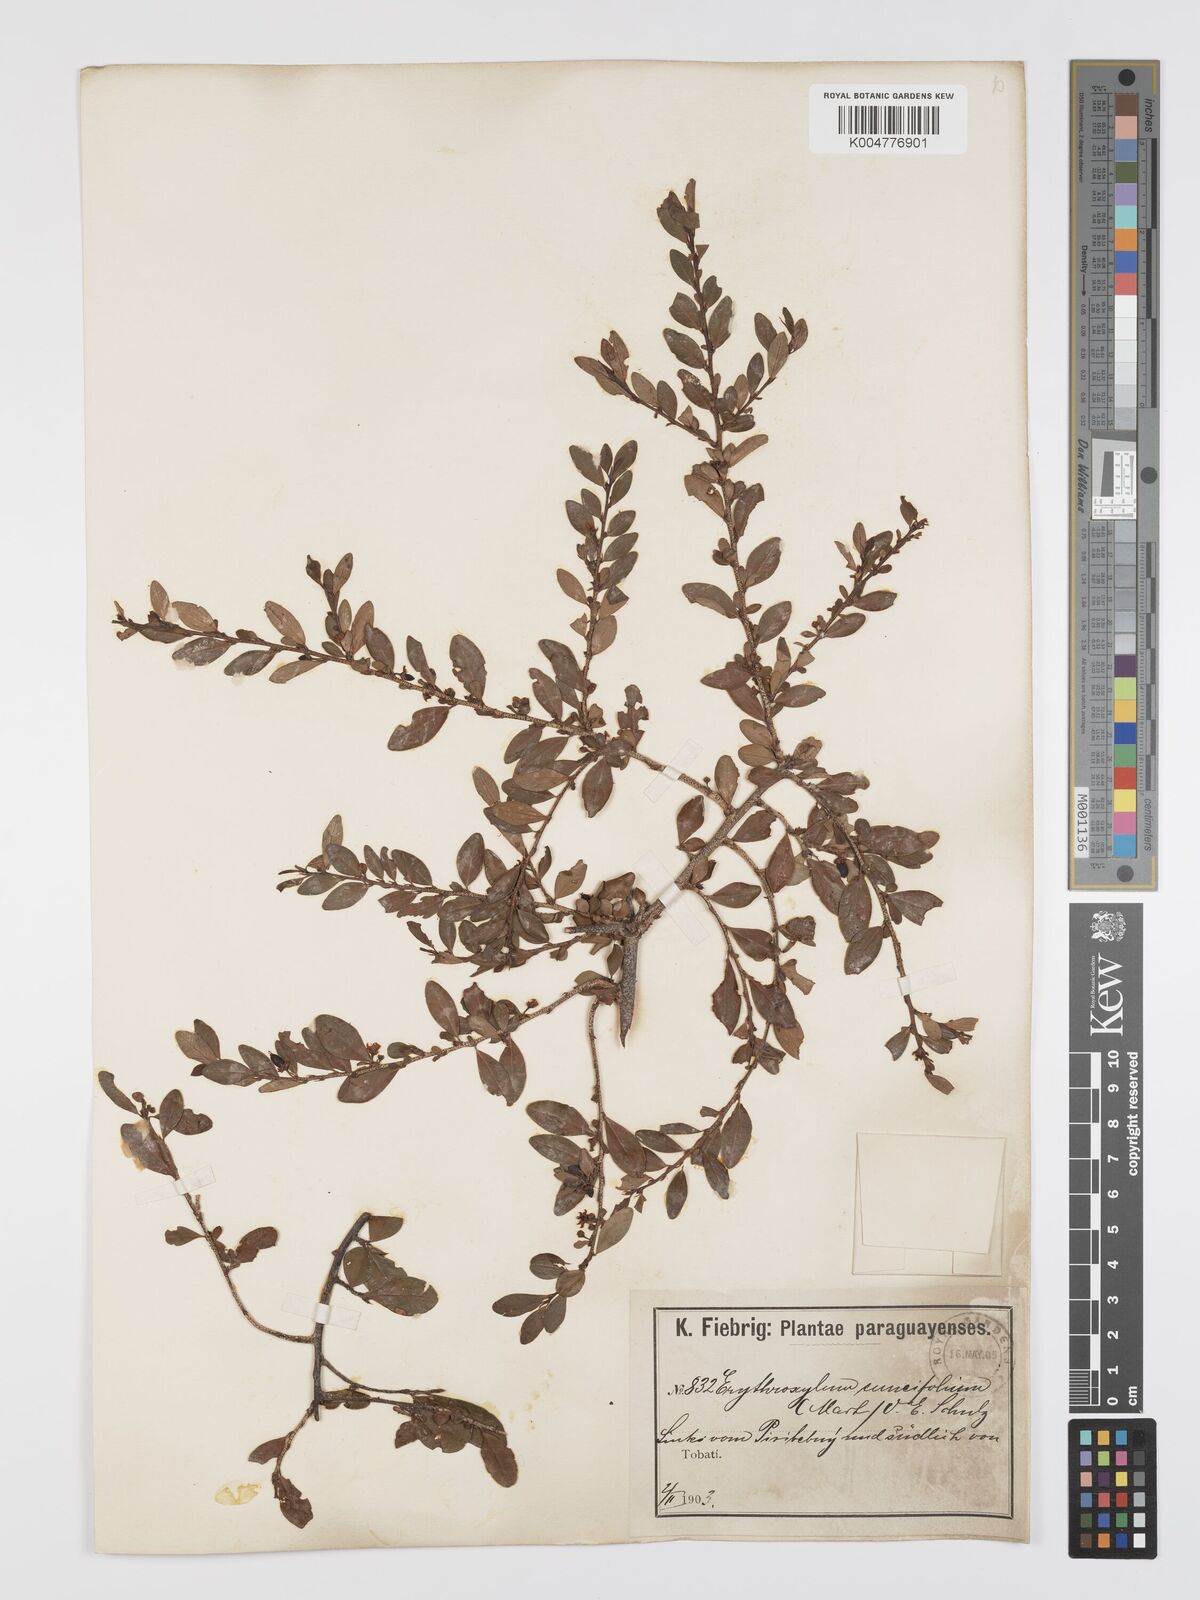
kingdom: Plantae
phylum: Tracheophyta
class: Magnoliopsida
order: Malpighiales
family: Erythroxylaceae
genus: Erythroxylum
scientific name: Erythroxylum cuneifolium
